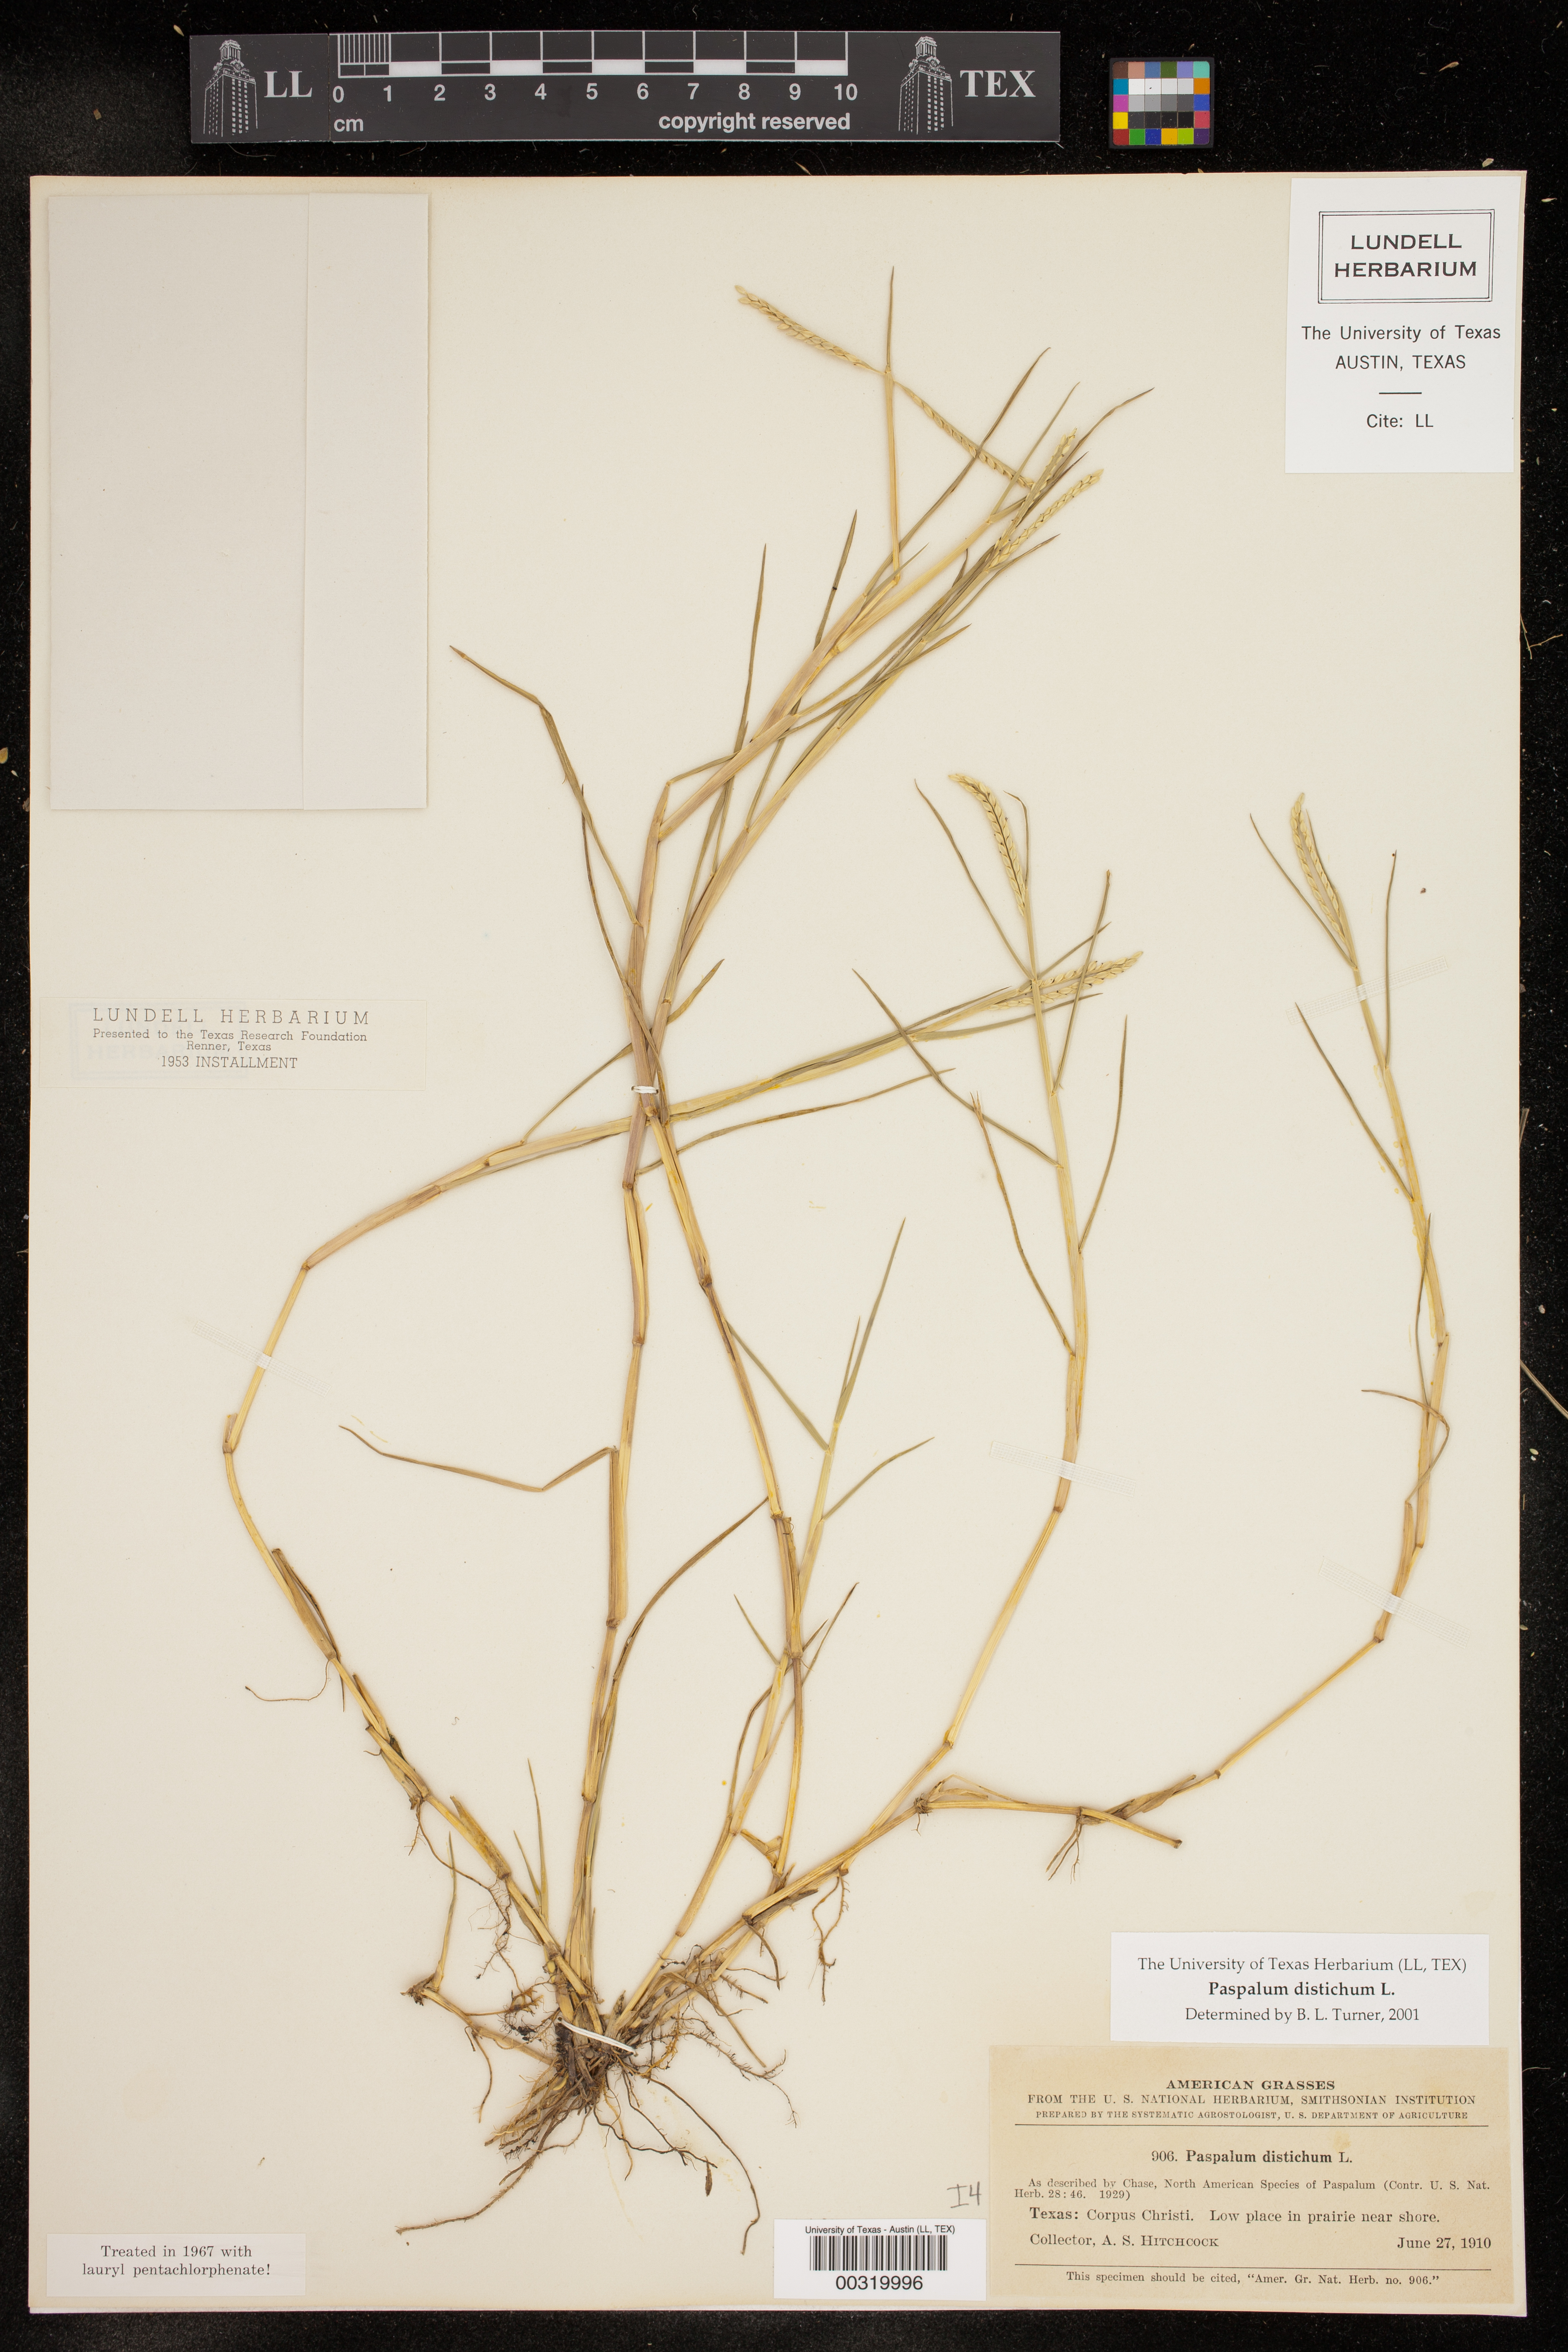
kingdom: Plantae
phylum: Tracheophyta
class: Liliopsida
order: Poales
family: Poaceae
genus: Paspalum
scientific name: Paspalum distichum
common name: Knotgrass
